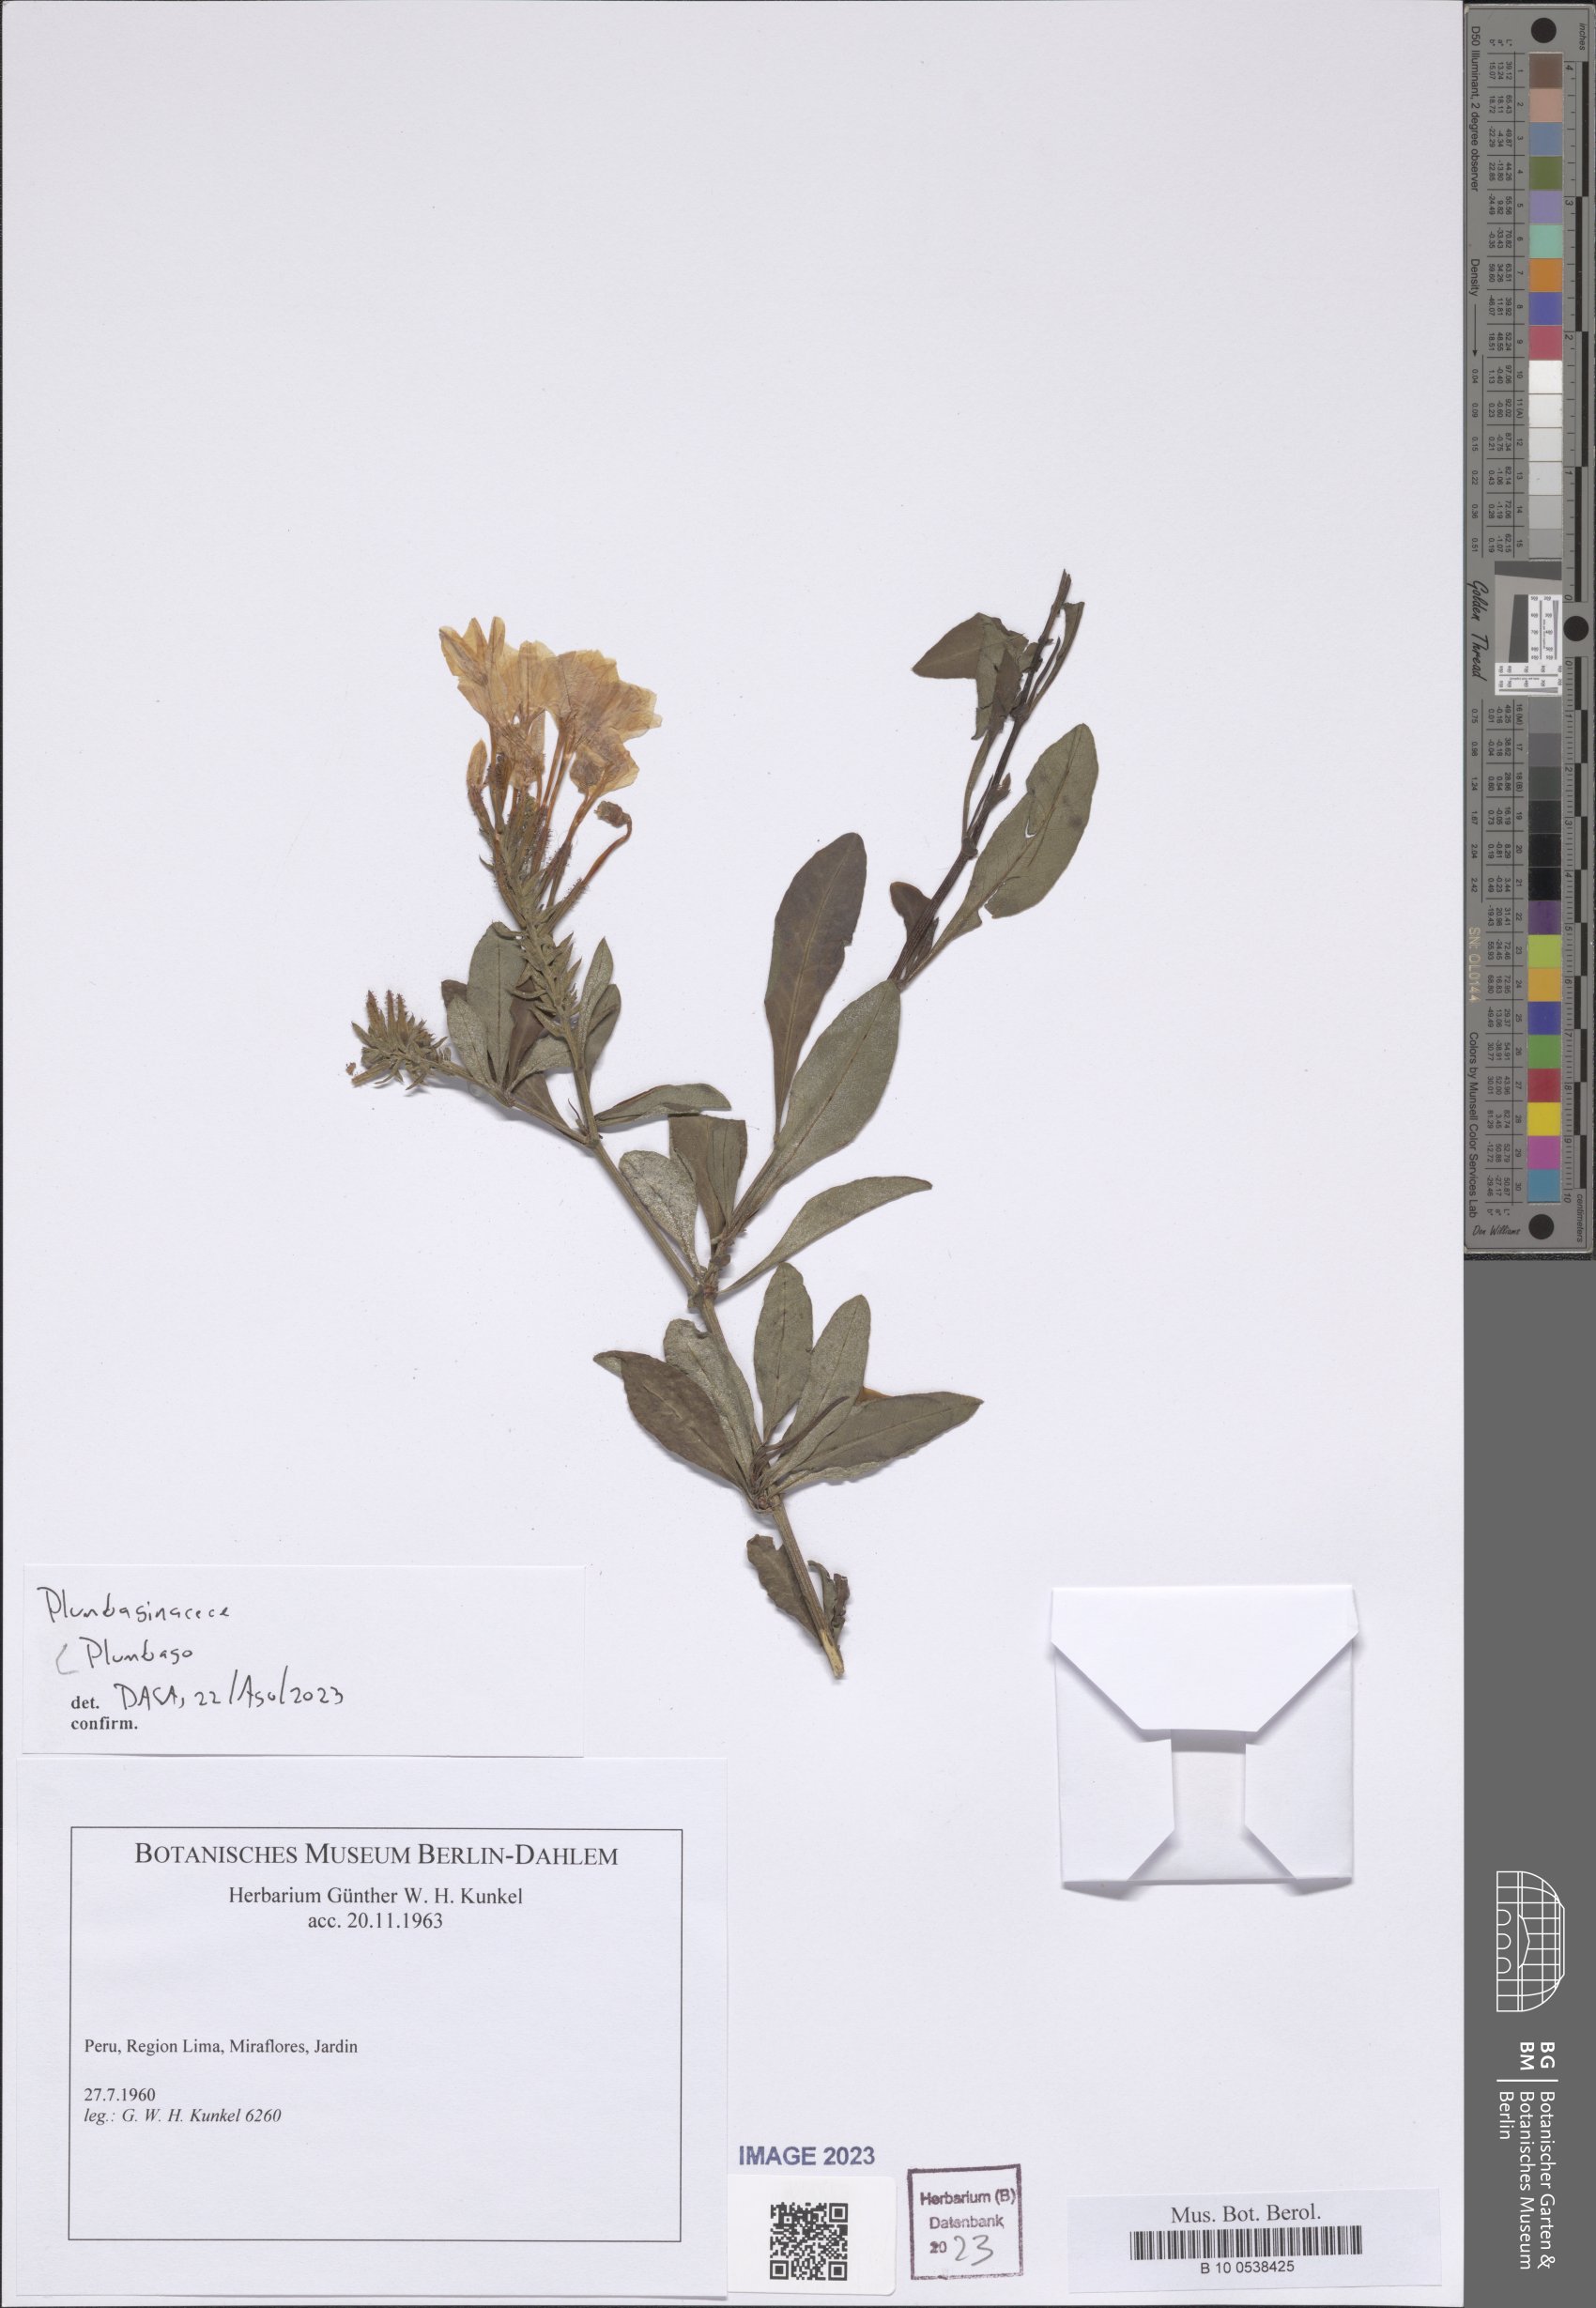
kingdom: Plantae
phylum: Tracheophyta
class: Magnoliopsida
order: Caryophyllales
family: Plumbaginaceae
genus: Plumbago
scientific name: Plumbago
